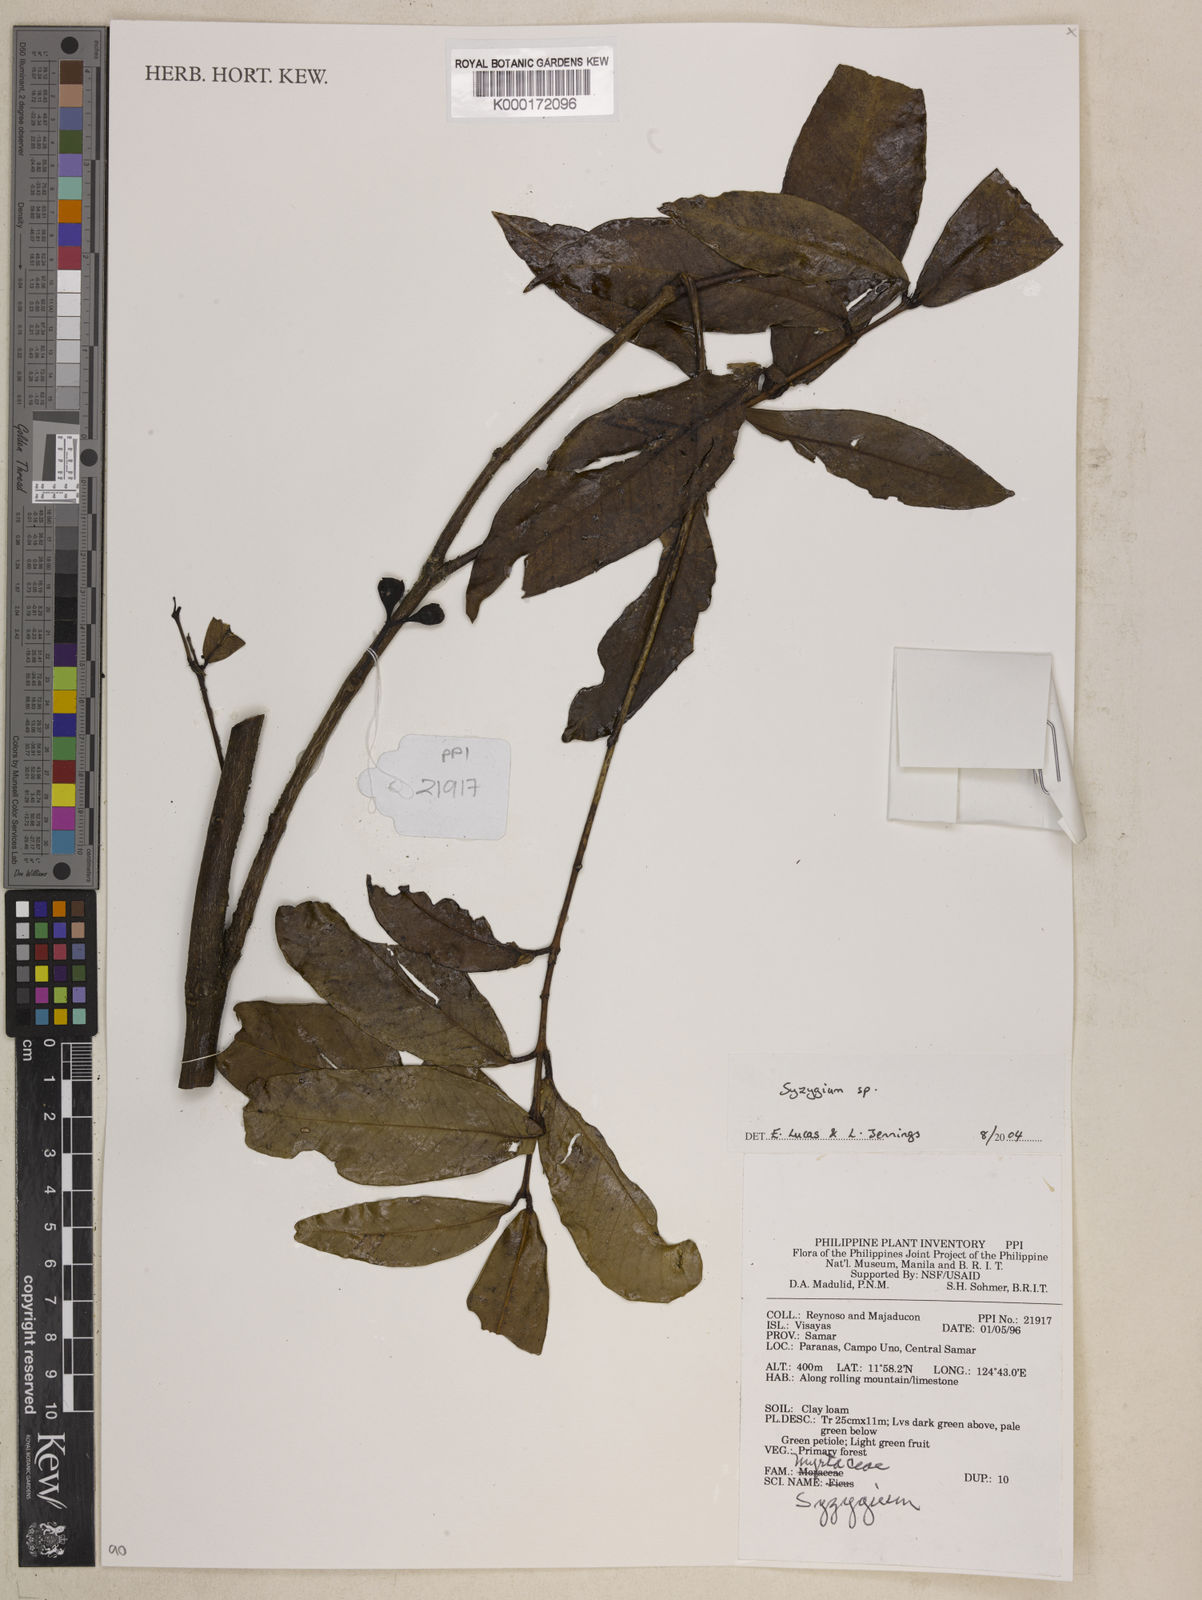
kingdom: Plantae
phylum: Tracheophyta
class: Magnoliopsida
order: Myrtales
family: Myrtaceae
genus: Syzygium
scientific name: Syzygium
